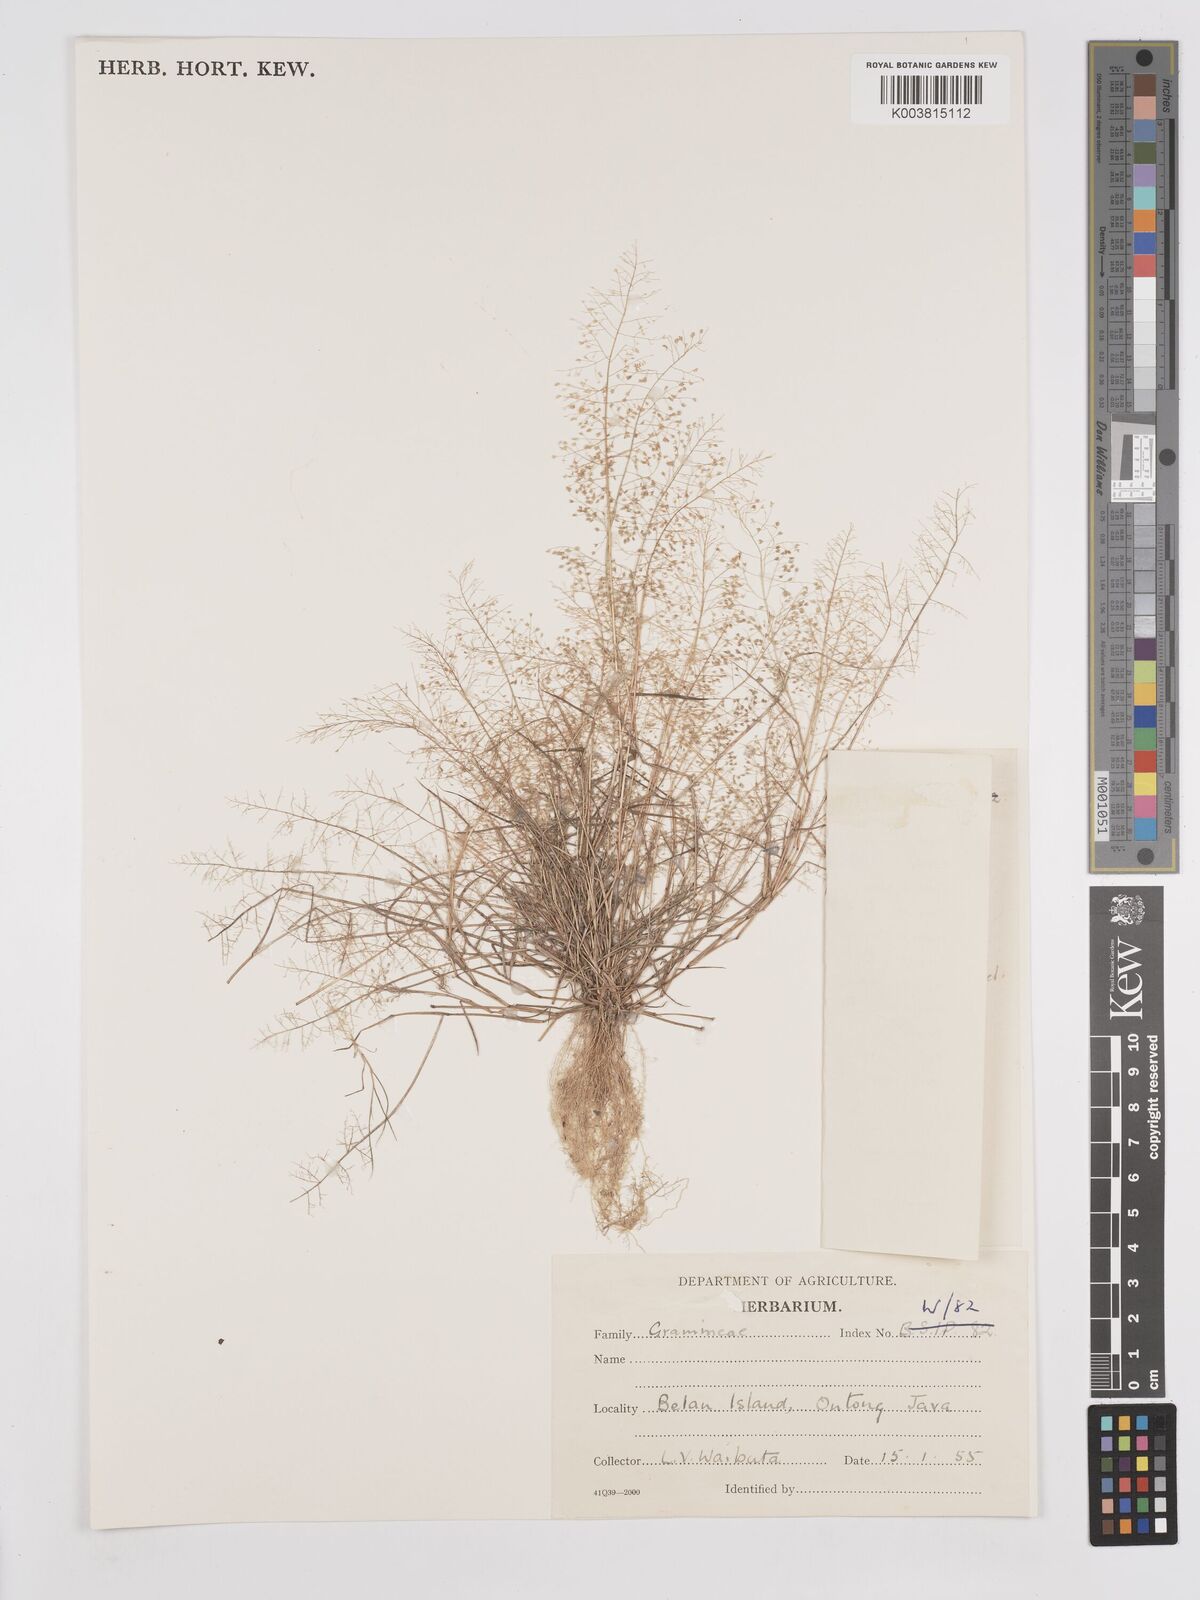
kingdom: Plantae
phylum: Tracheophyta
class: Liliopsida
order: Poales
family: Poaceae
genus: Eragrostis
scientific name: Eragrostis tenella
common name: Japanese lovegrass
